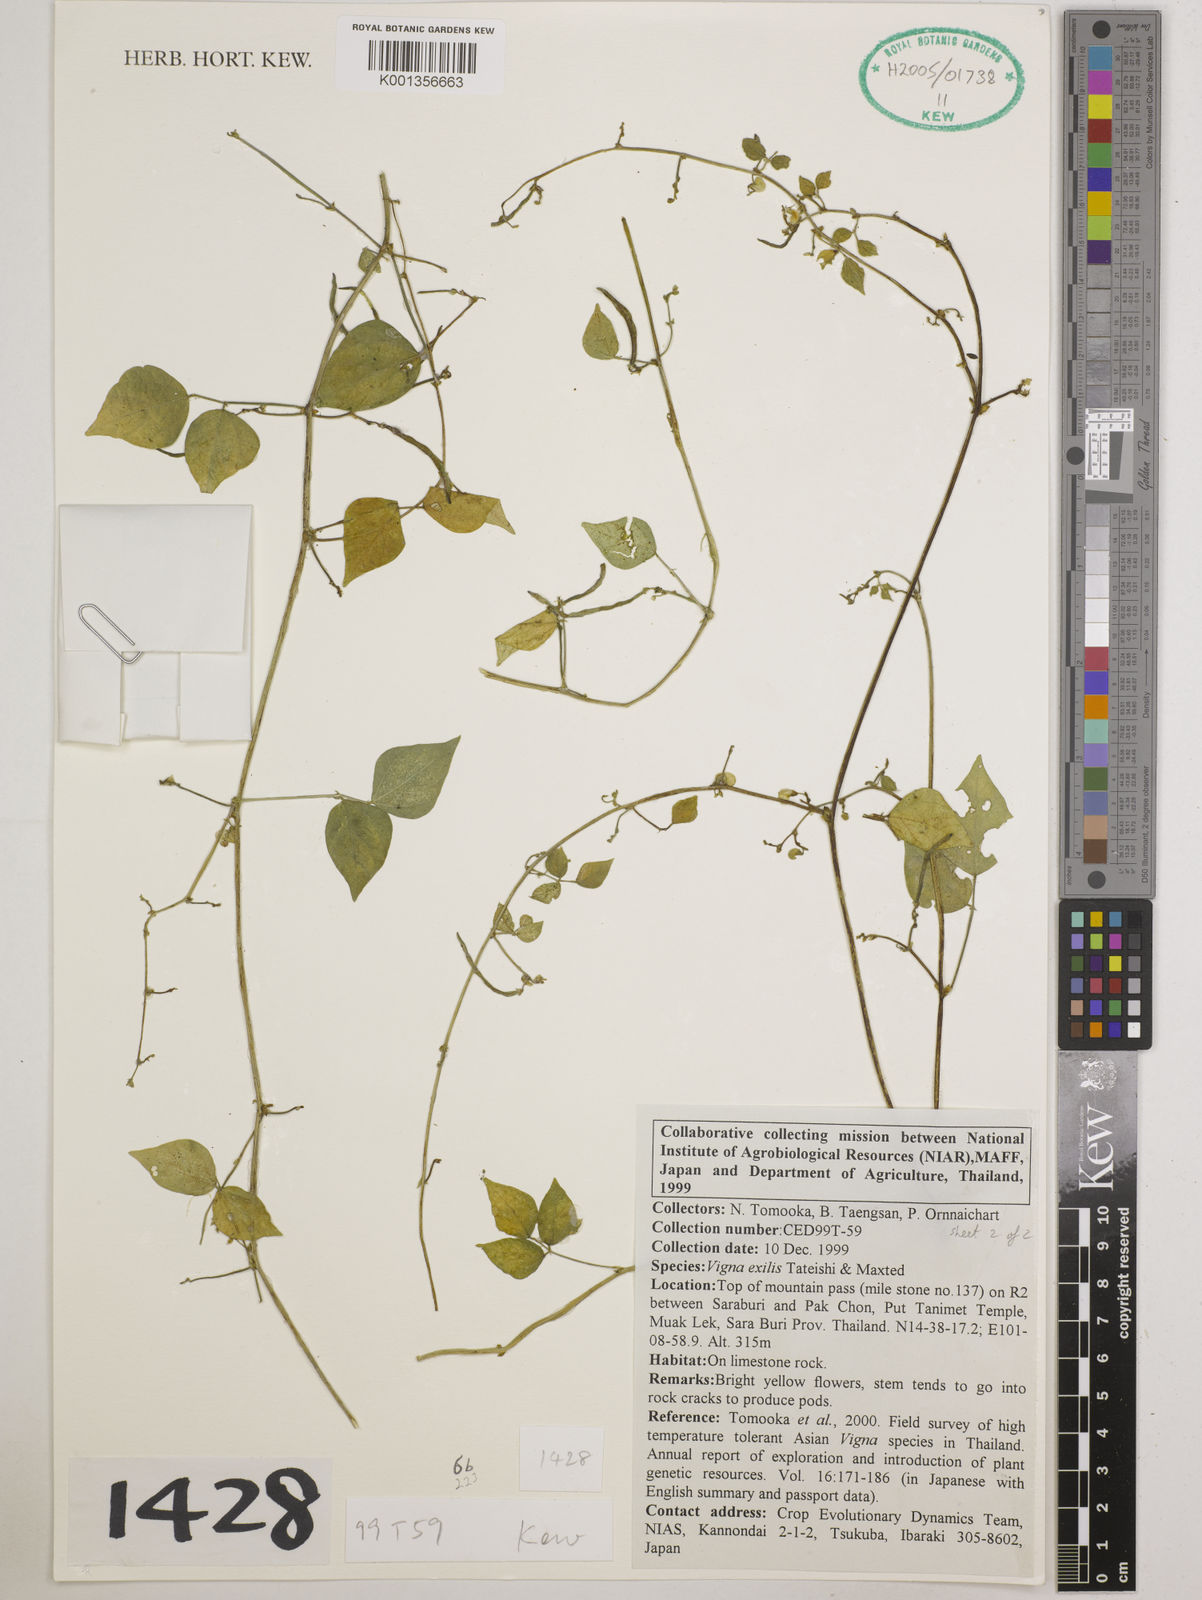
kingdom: Plantae
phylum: Tracheophyta
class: Magnoliopsida
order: Fabales
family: Fabaceae
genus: Vigna
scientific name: Vigna
